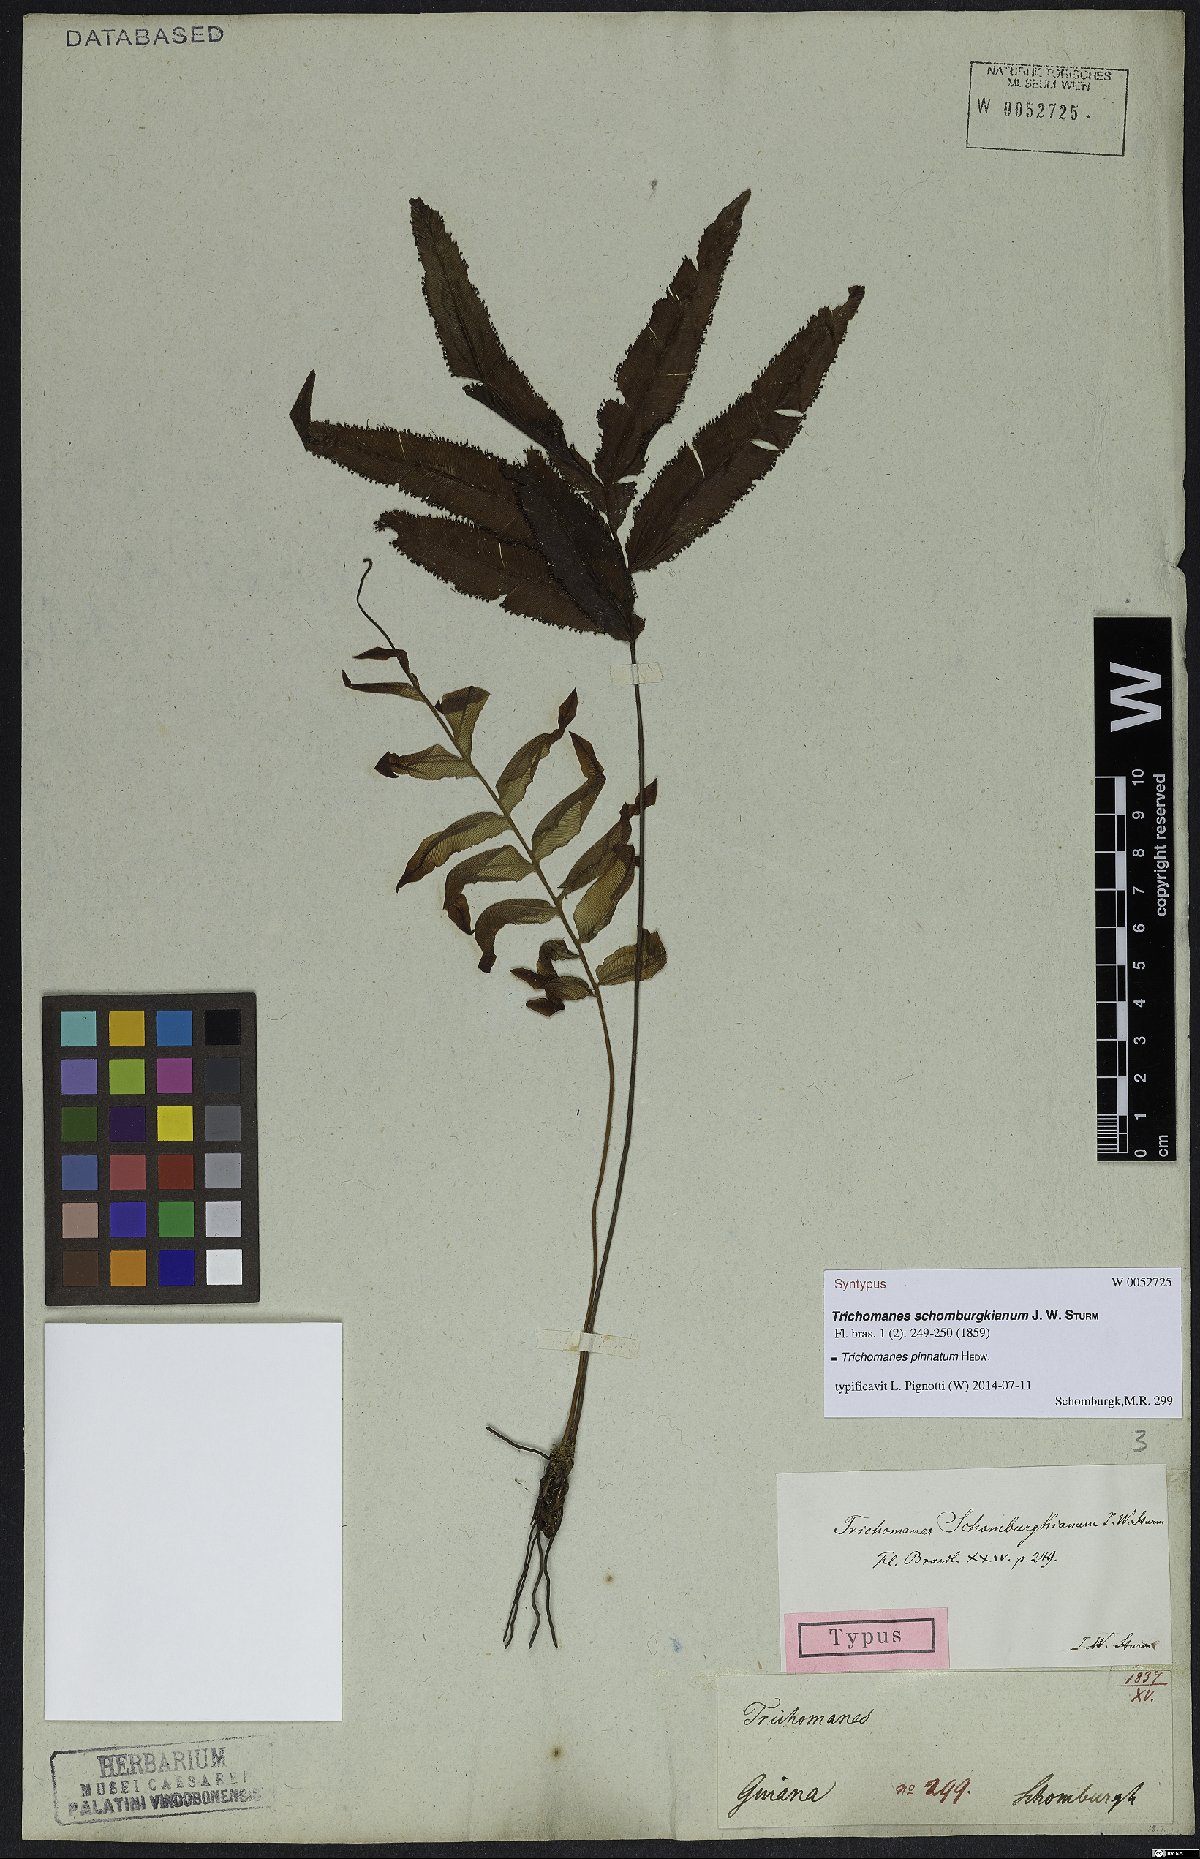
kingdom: Plantae
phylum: Tracheophyta
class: Polypodiopsida
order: Hymenophyllales
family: Hymenophyllaceae
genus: Trichomanes
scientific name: Trichomanes pinnatum
